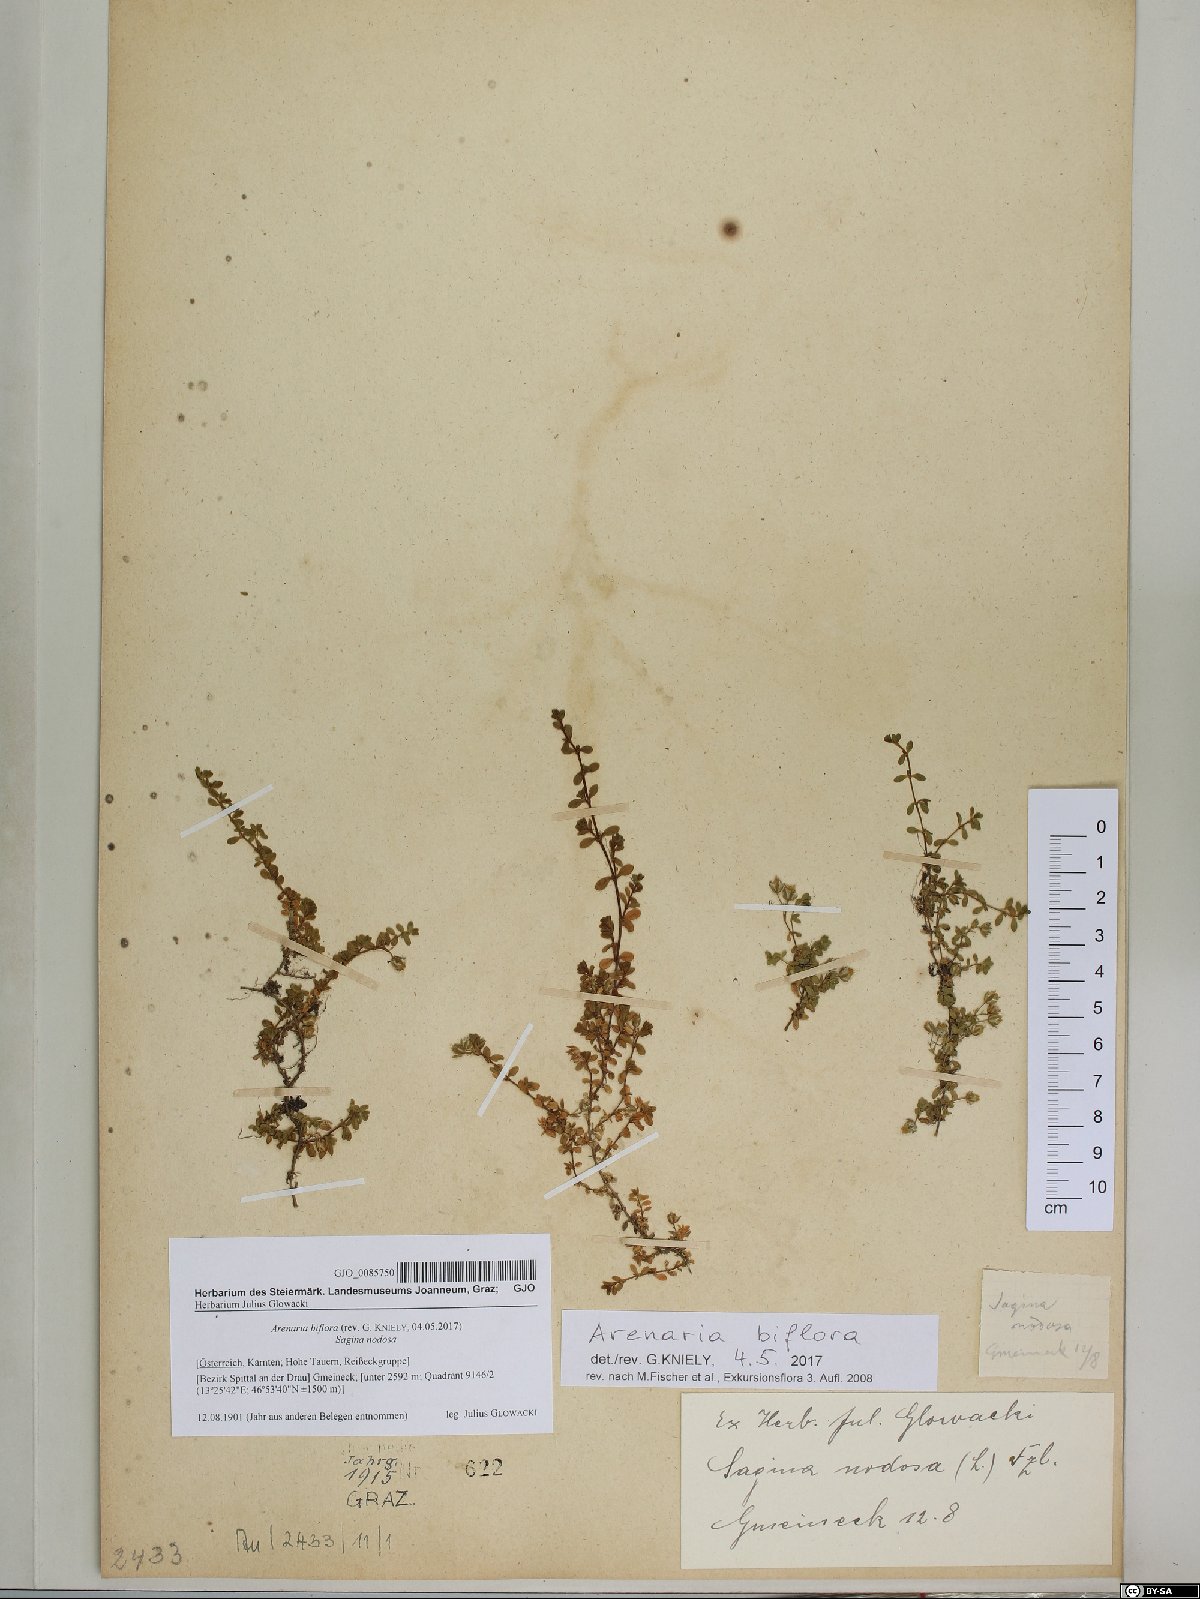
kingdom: Plantae
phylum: Tracheophyta
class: Magnoliopsida
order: Caryophyllales
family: Caryophyllaceae
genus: Arenaria
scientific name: Arenaria biflora
